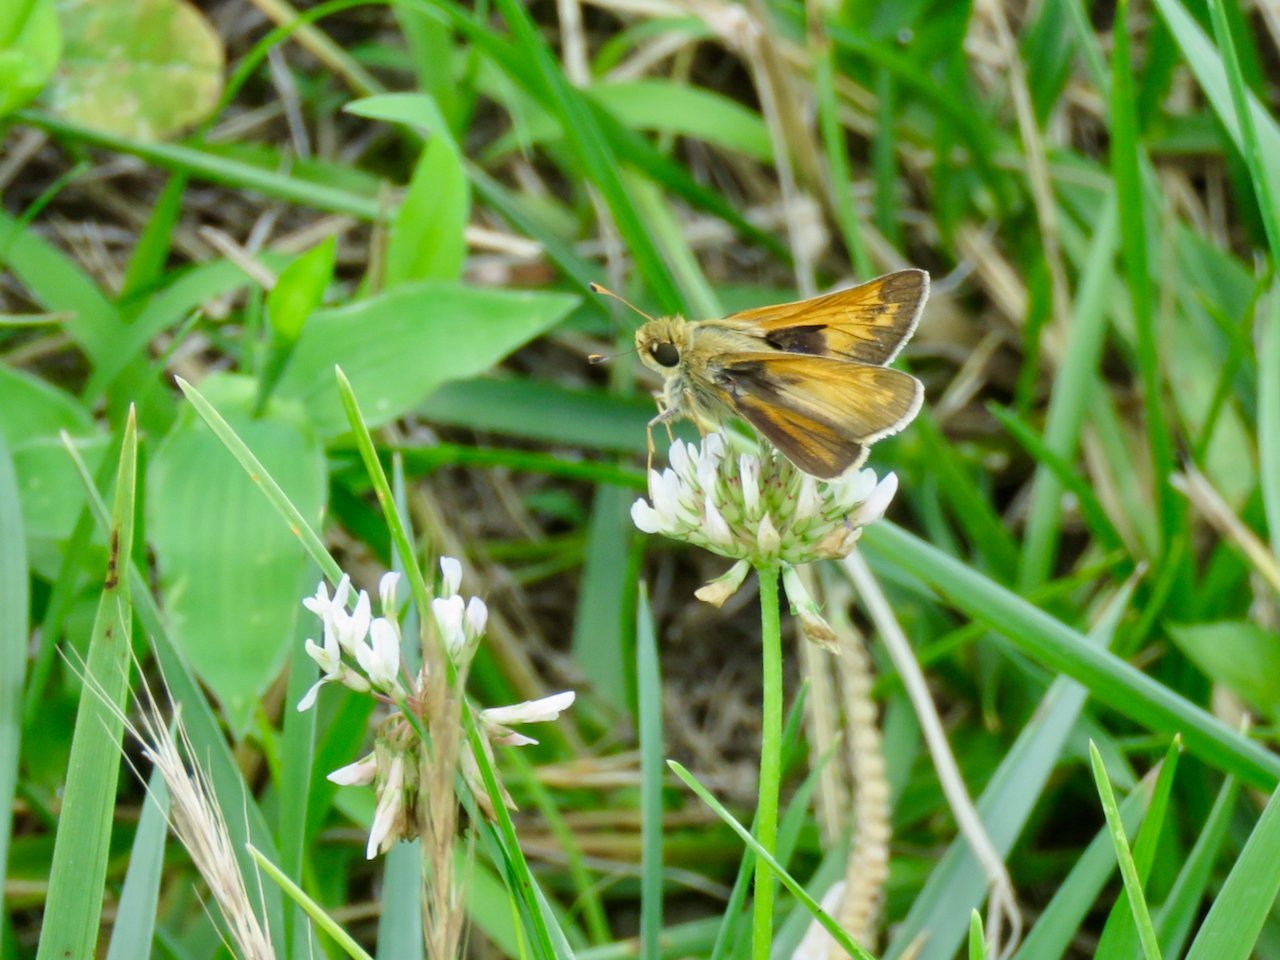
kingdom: Animalia
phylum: Arthropoda
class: Insecta
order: Lepidoptera
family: Hesperiidae
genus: Atalopedes
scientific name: Atalopedes campestris
